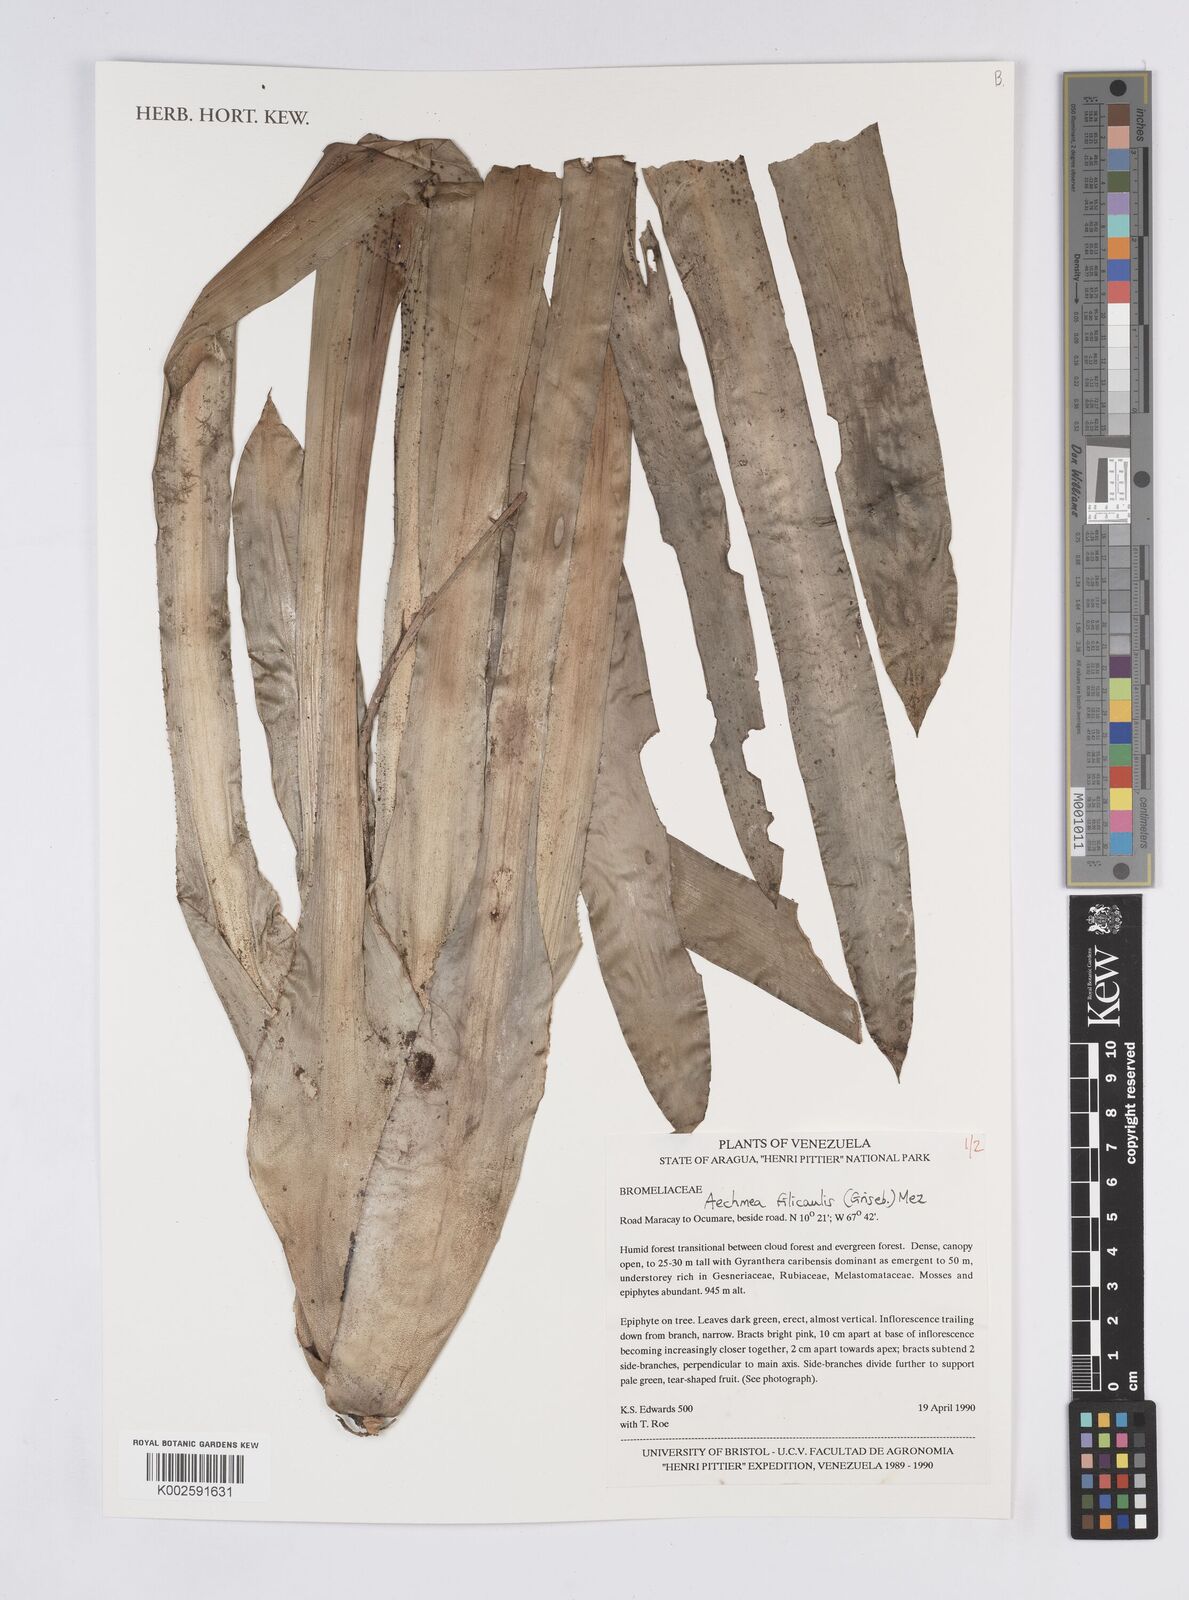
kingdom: Plantae
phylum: Tracheophyta
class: Liliopsida
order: Poales
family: Bromeliaceae
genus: Aechmea
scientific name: Aechmea filicaulis
